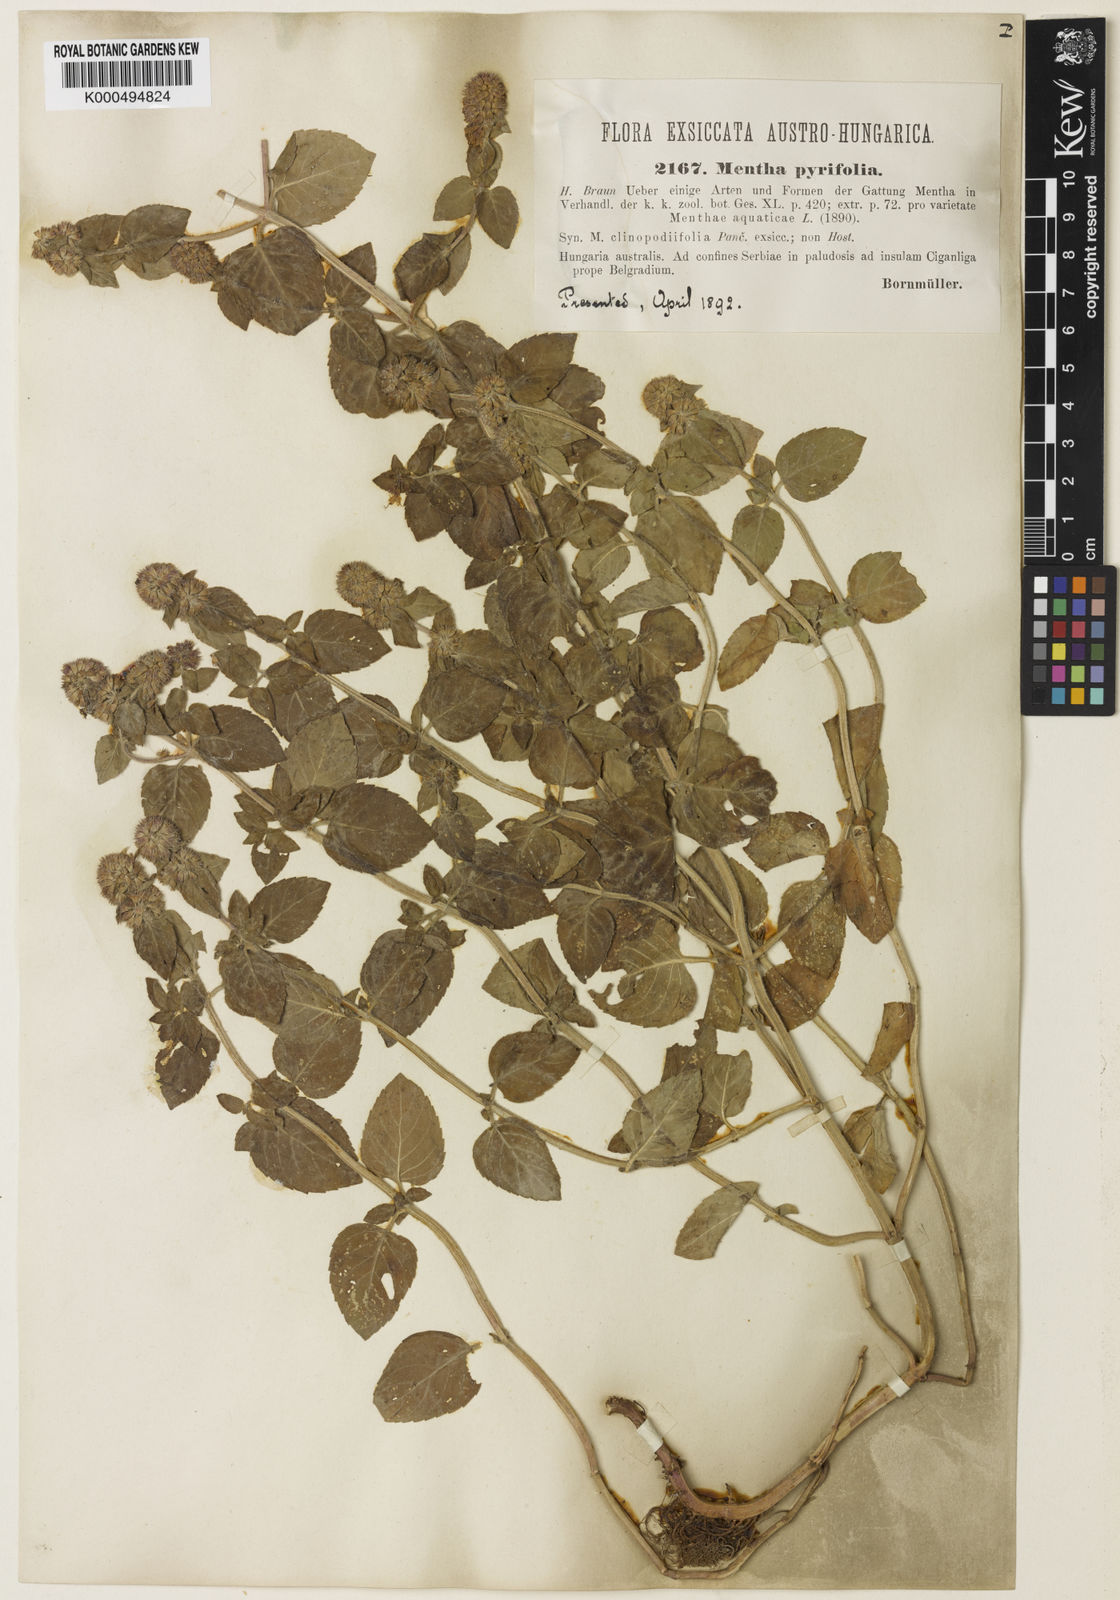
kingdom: Plantae
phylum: Tracheophyta
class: Magnoliopsida
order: Lamiales
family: Lamiaceae
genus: Mentha
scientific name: Mentha aquatica
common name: Water mint
